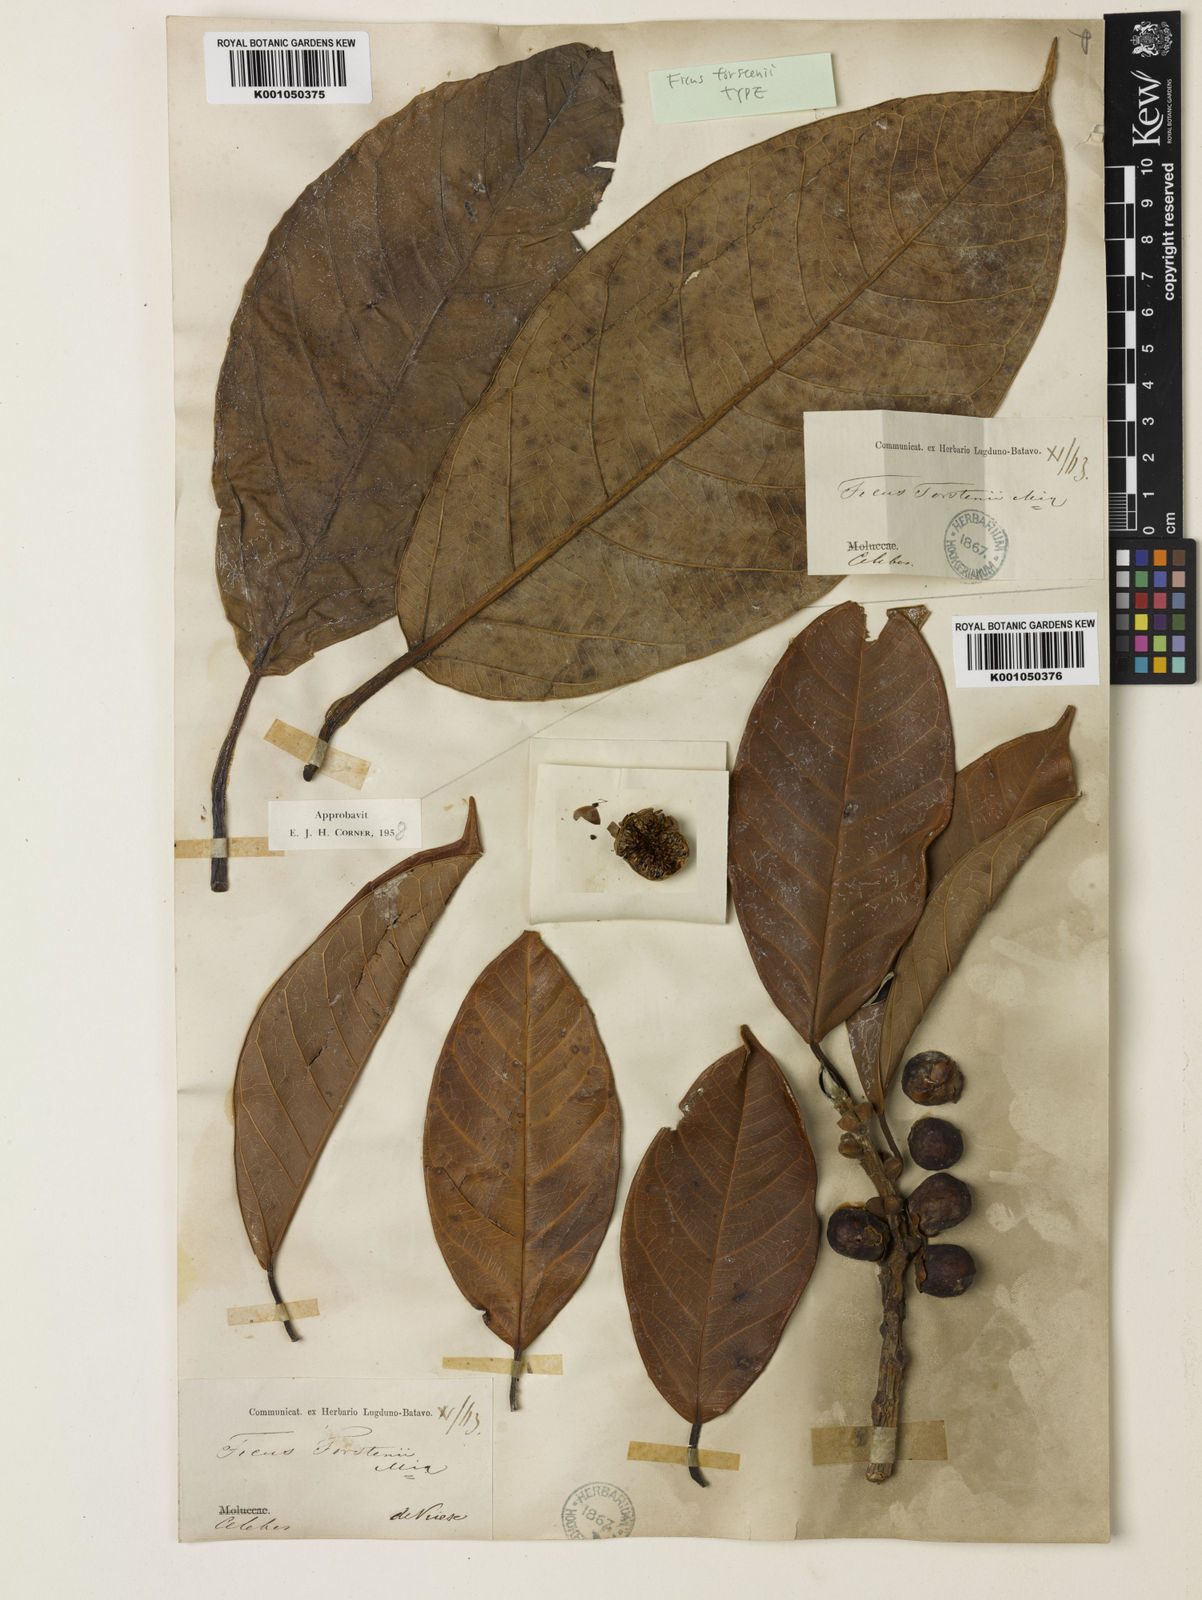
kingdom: Plantae
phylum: Tracheophyta
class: Magnoliopsida
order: Rosales
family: Moraceae
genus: Ficus
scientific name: Ficus forstenii
